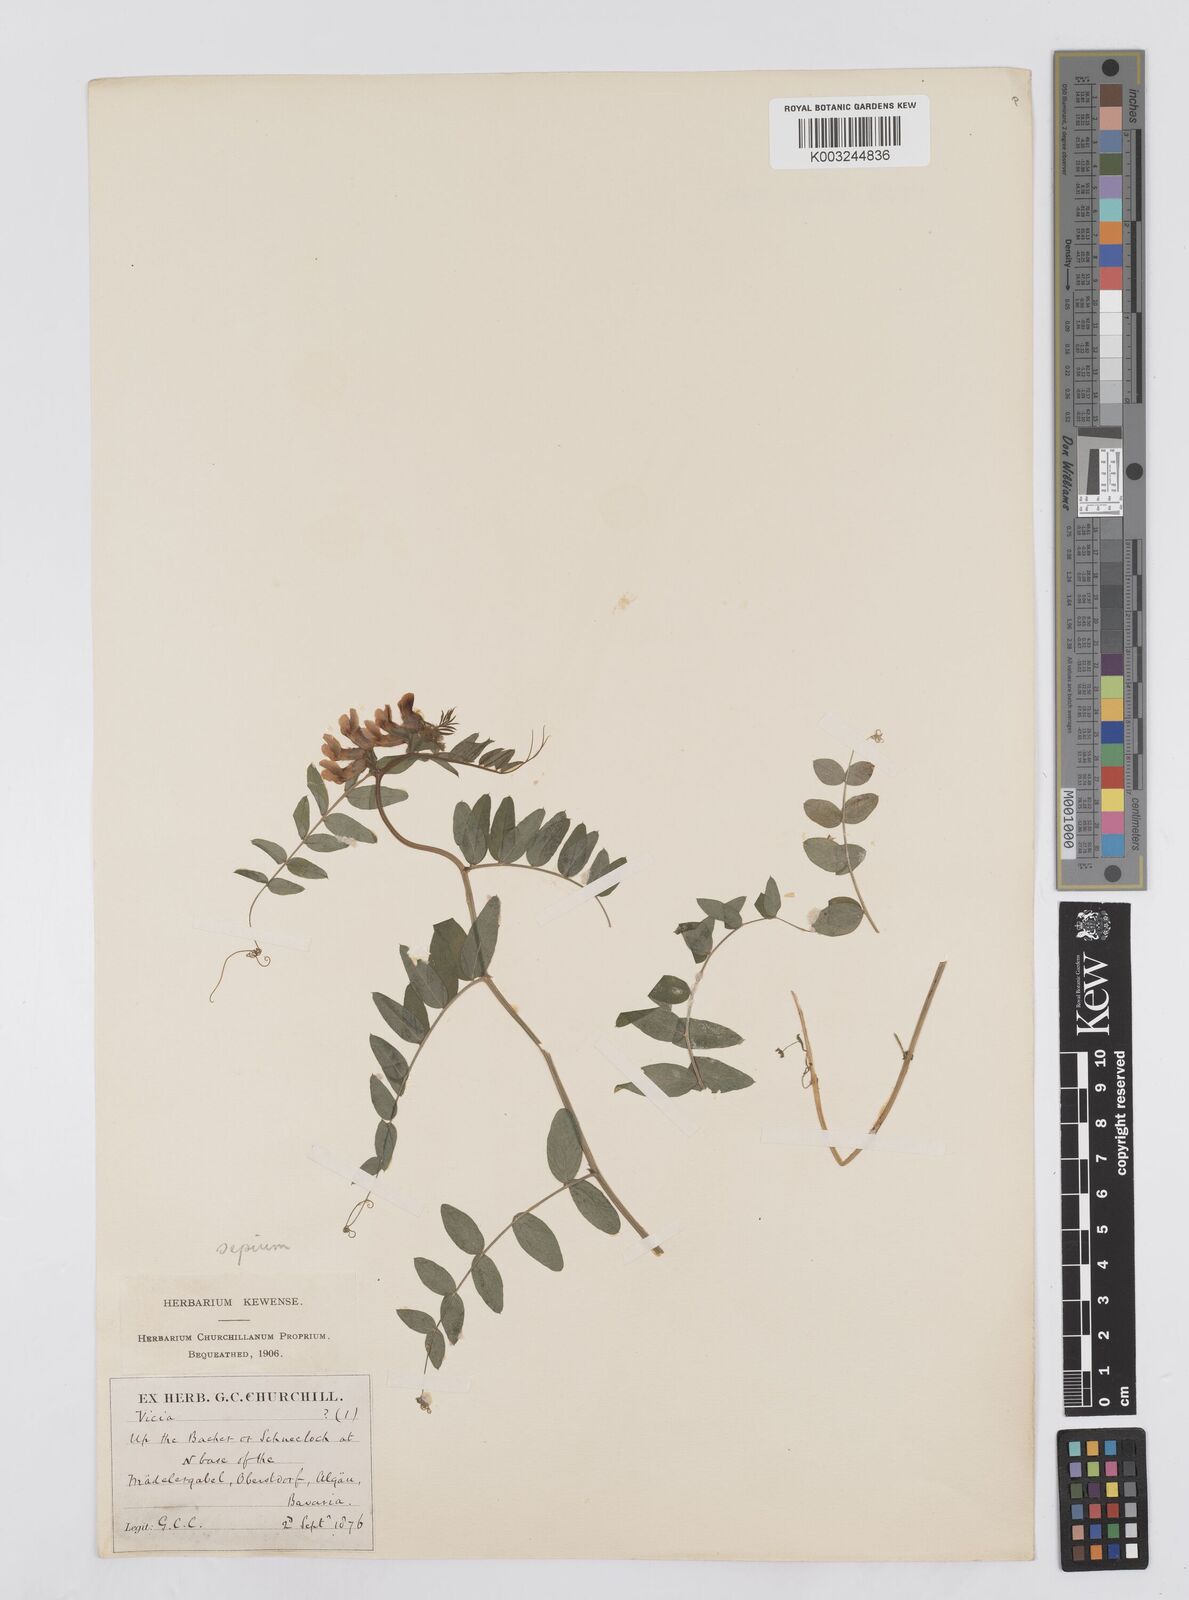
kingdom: Plantae
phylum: Tracheophyta
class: Magnoliopsida
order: Fabales
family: Fabaceae
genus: Vicia
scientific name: Vicia sepium
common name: Bush vetch
